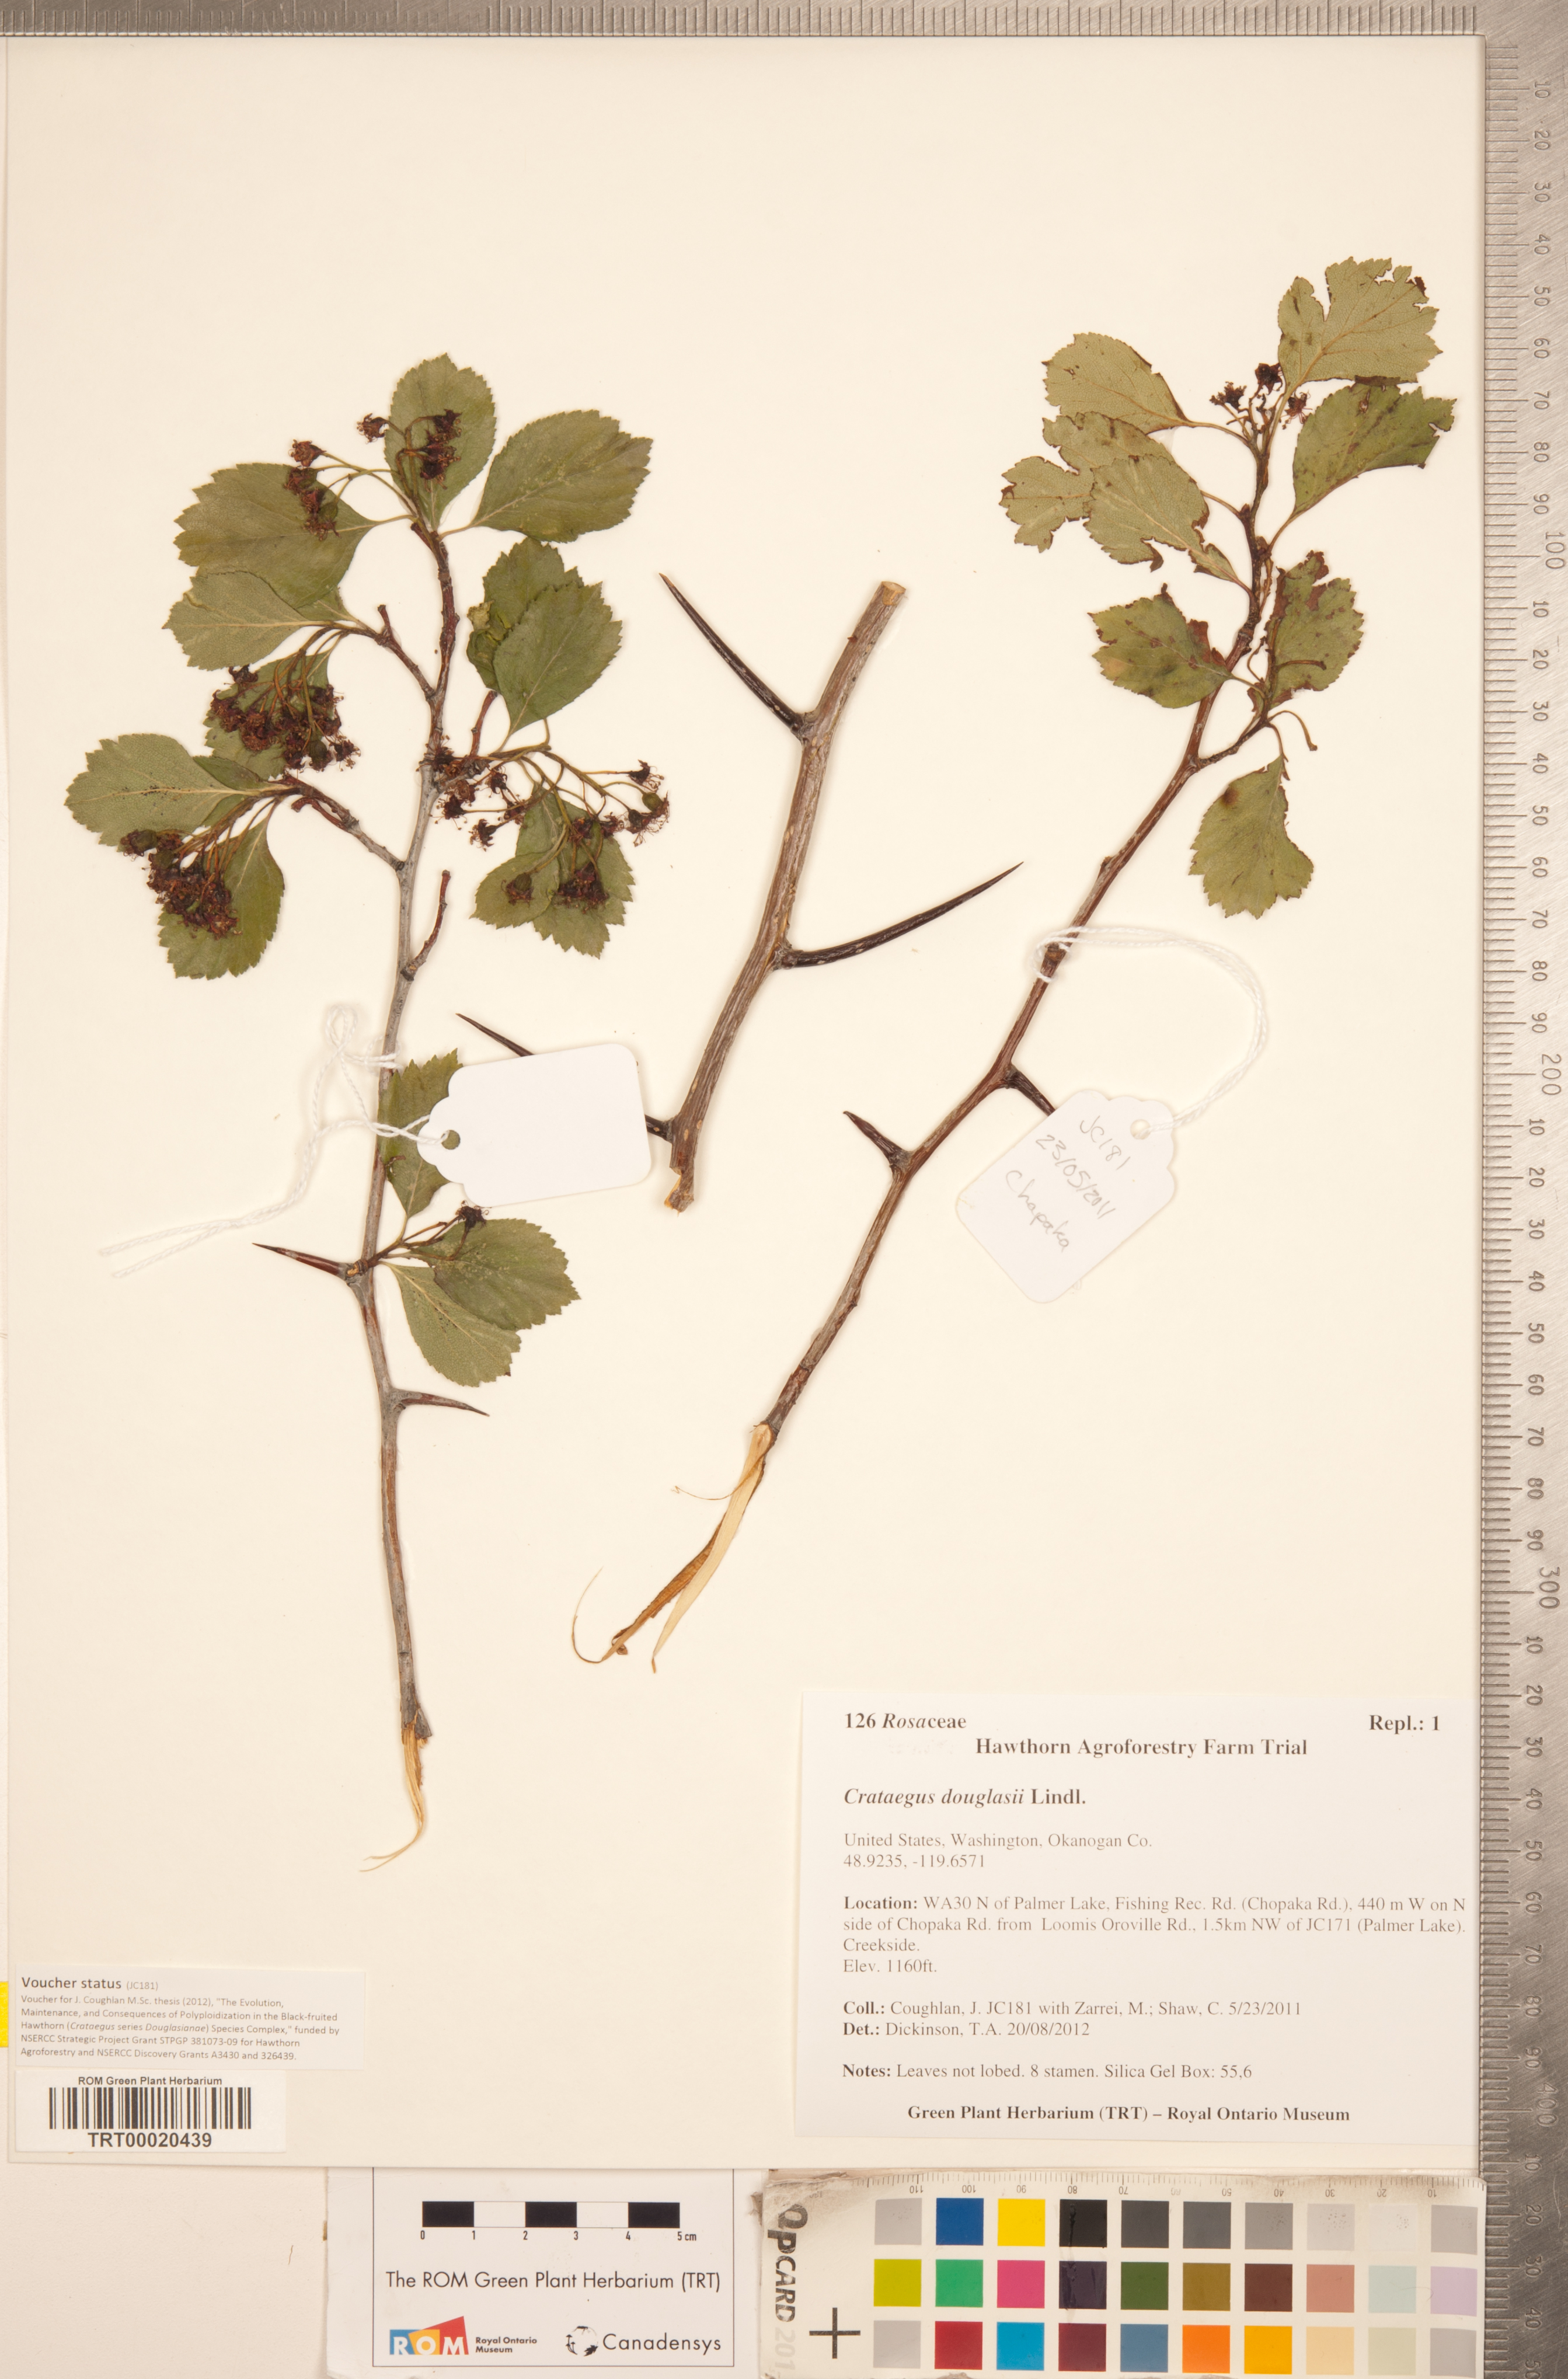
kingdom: Plantae
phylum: Tracheophyta
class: Magnoliopsida
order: Rosales
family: Rosaceae
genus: Crataegus
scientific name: Crataegus douglasii
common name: Black hawthorn
